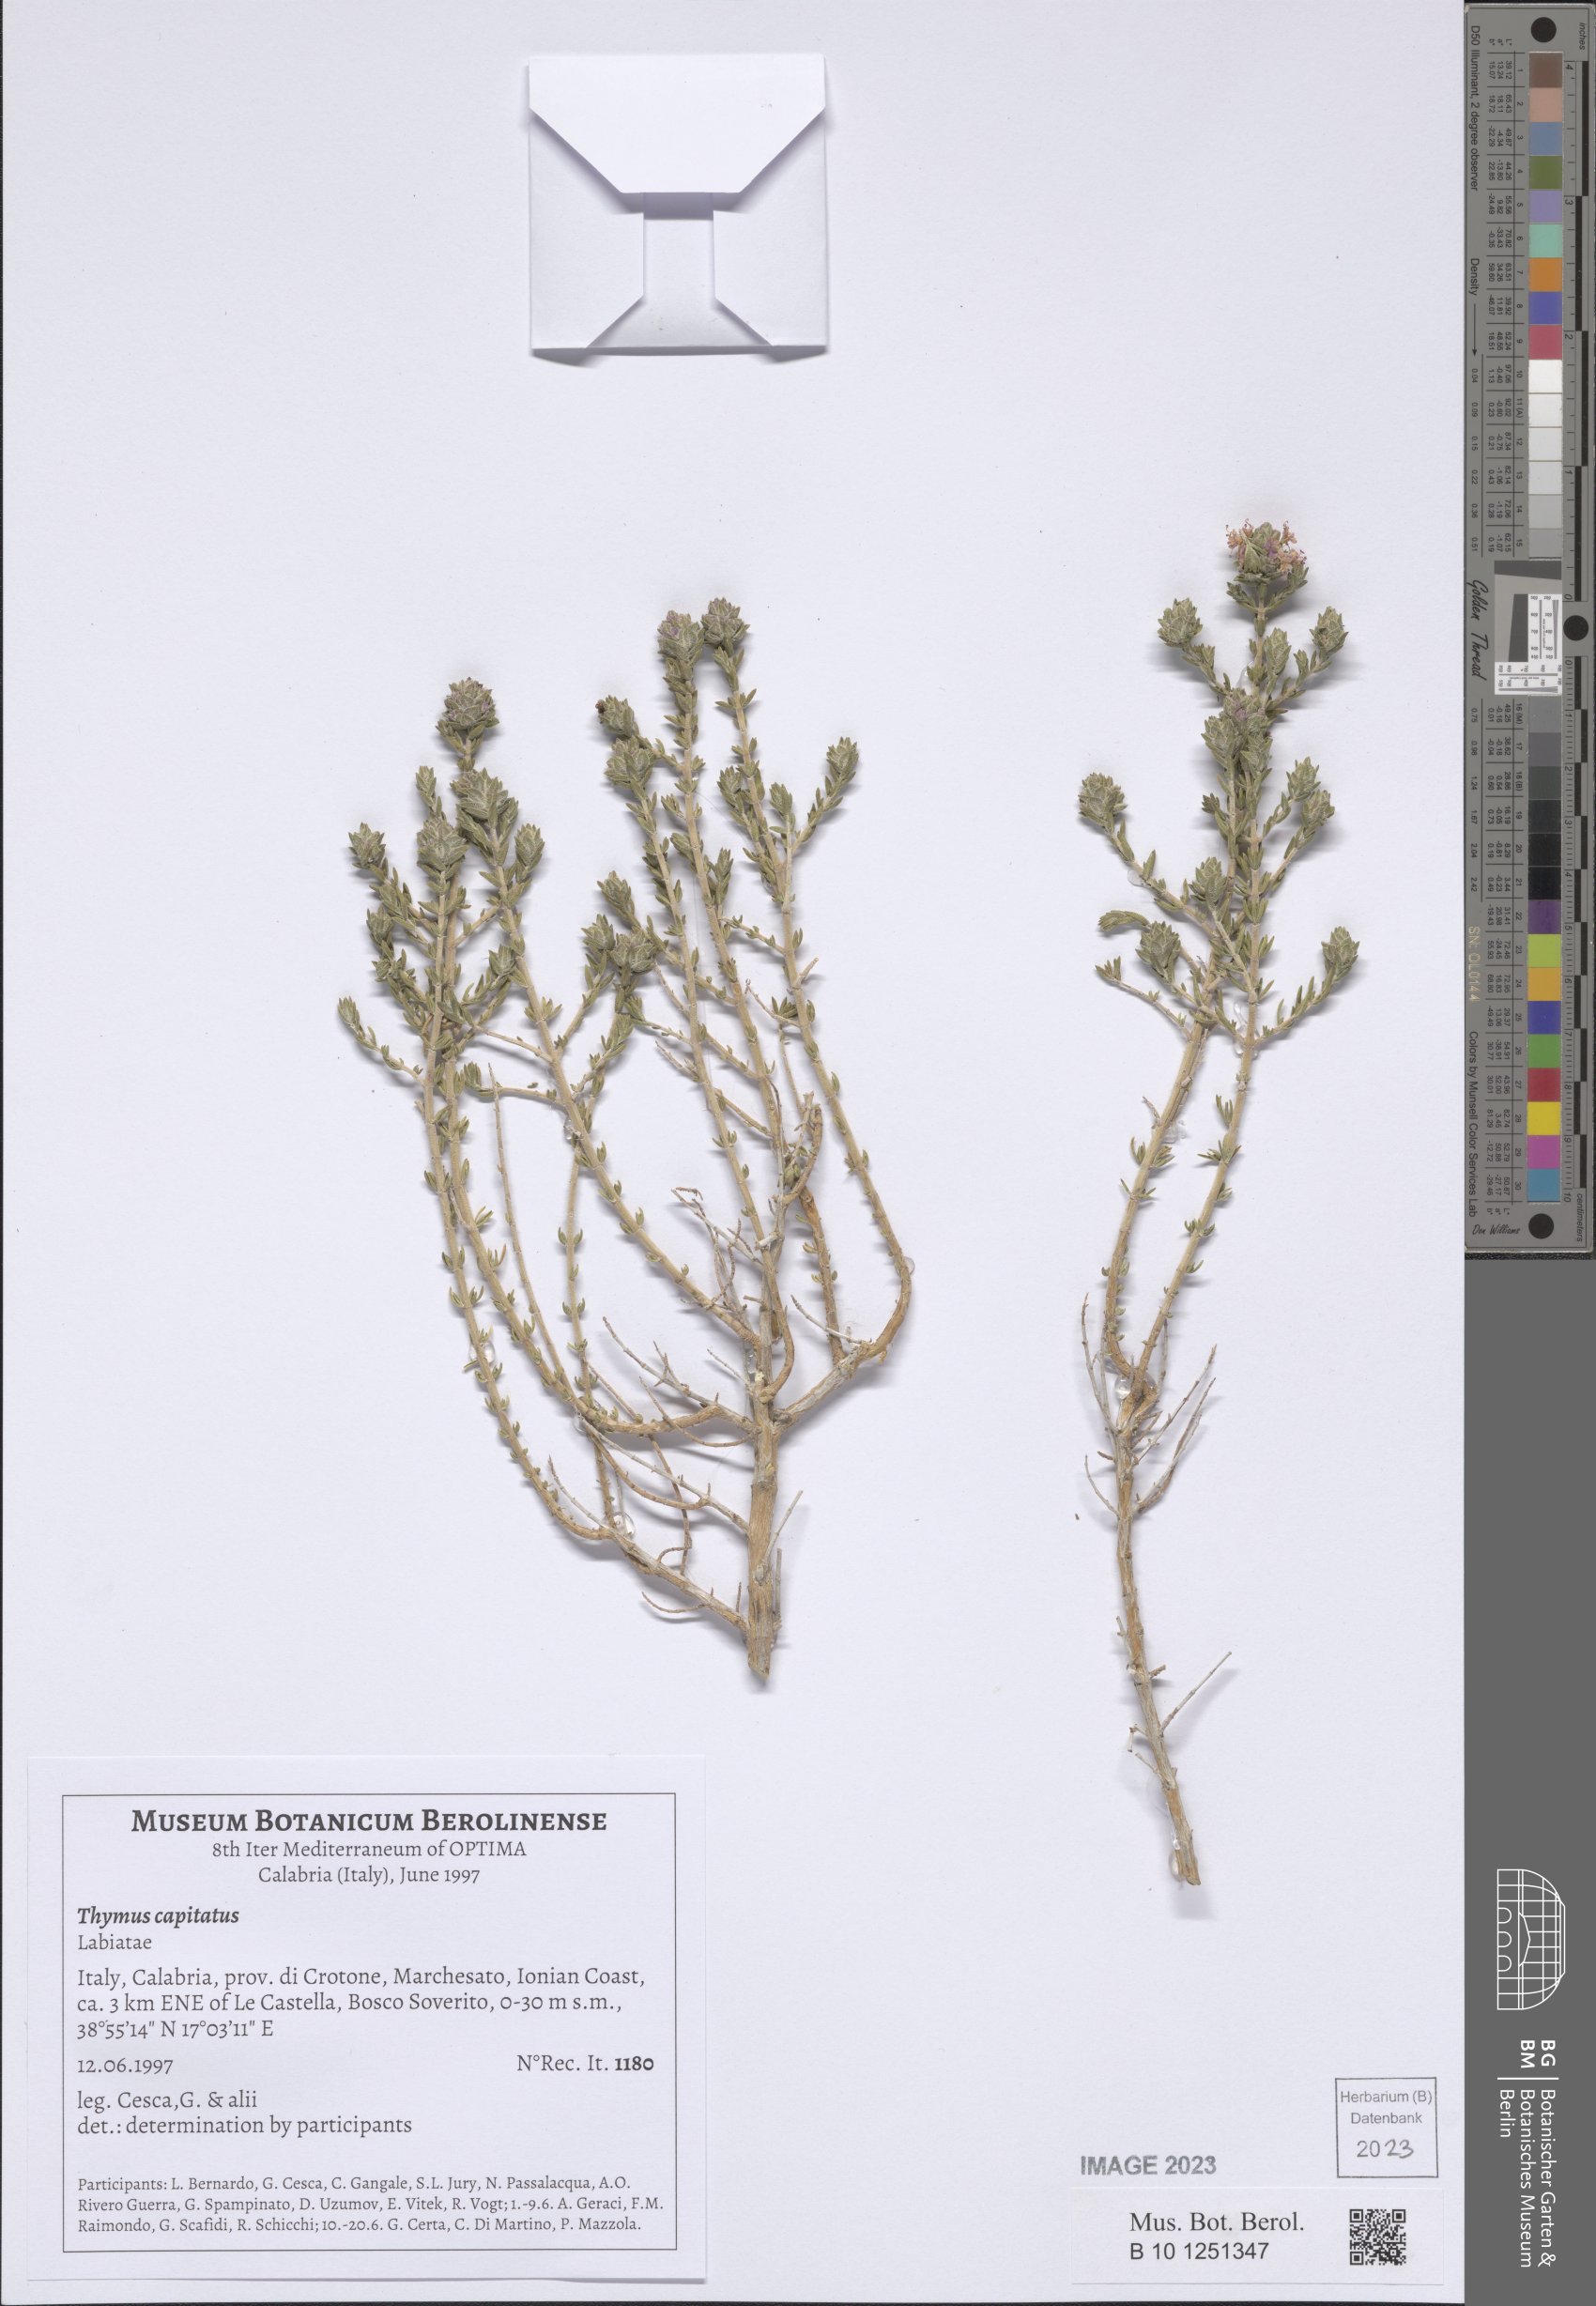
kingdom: Plantae
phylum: Tracheophyta
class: Magnoliopsida
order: Lamiales
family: Lamiaceae
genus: Thymbra
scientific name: Thymbra capitata
